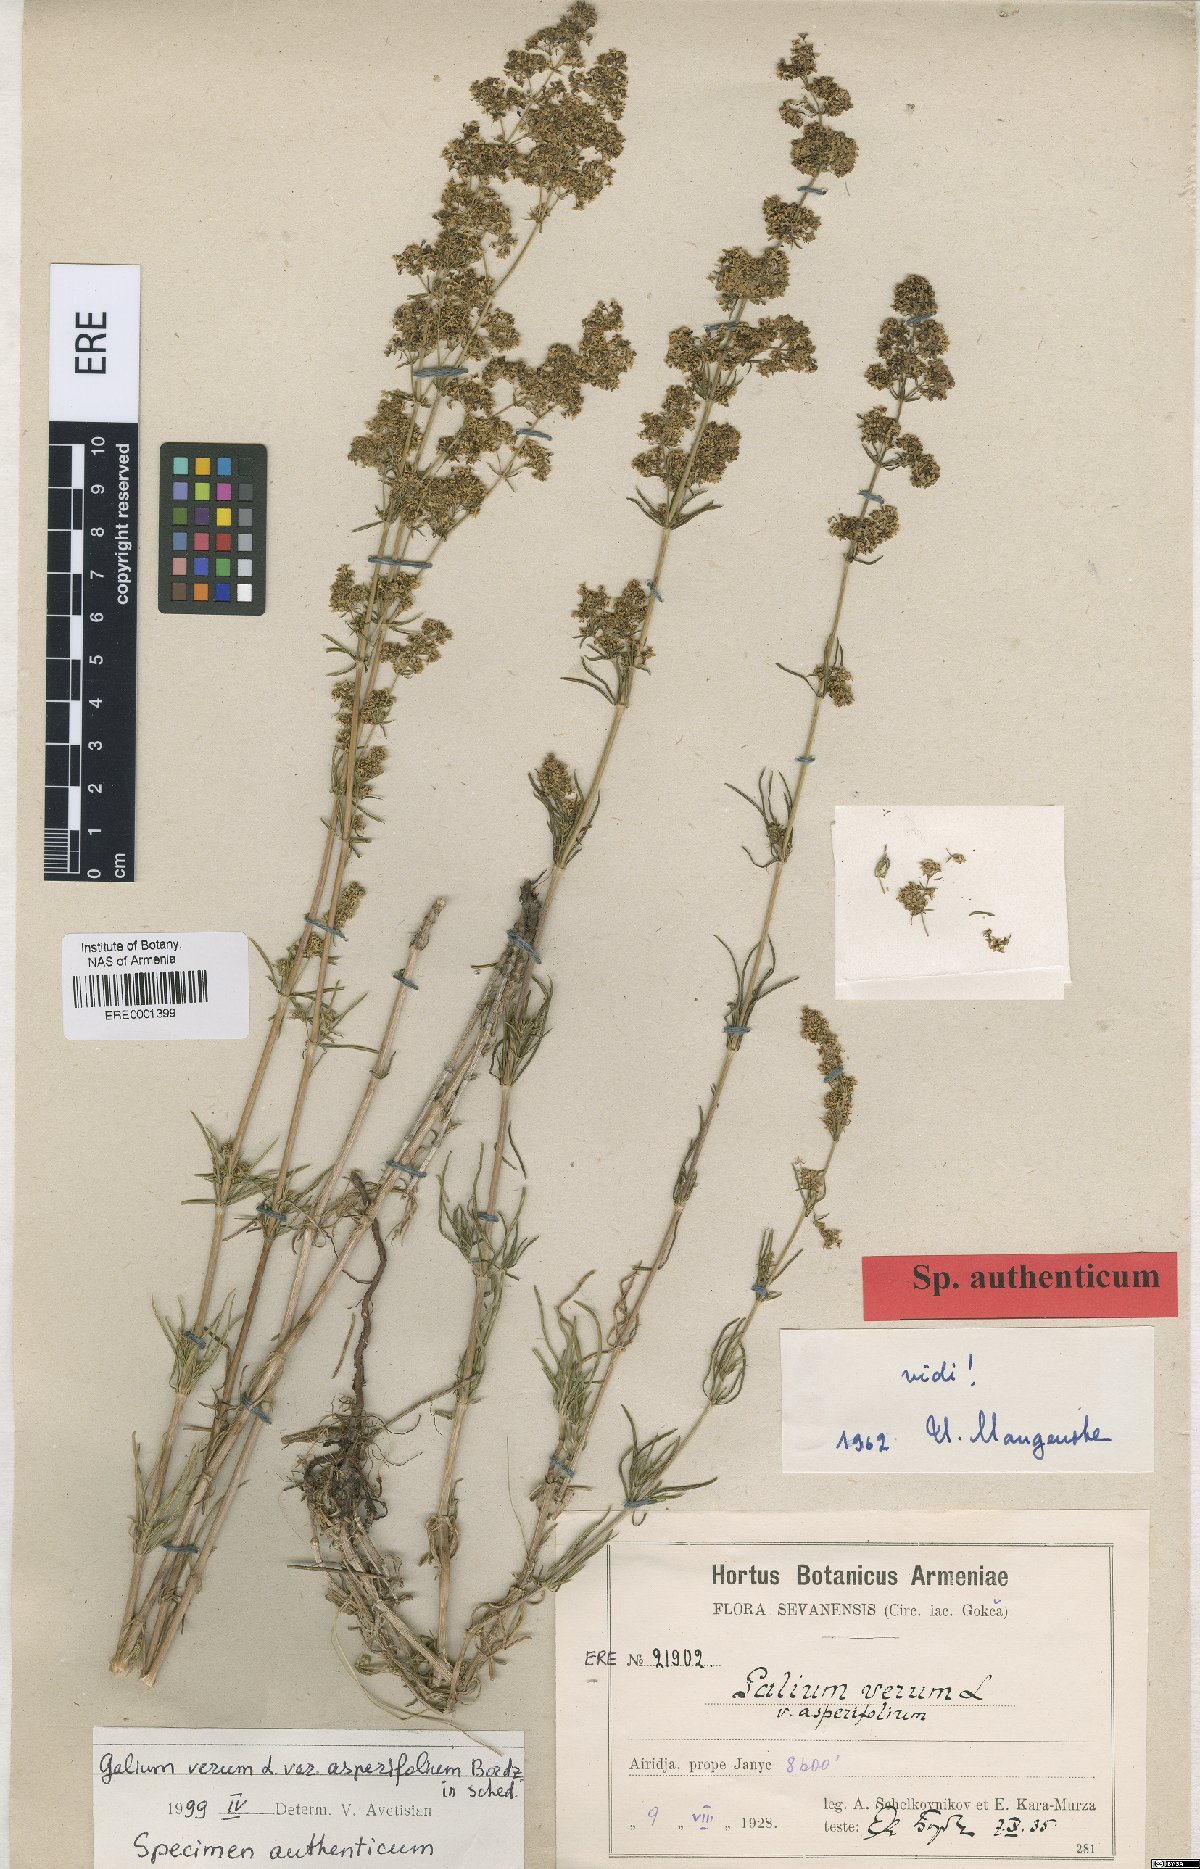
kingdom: Plantae
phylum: Tracheophyta
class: Magnoliopsida
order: Gentianales
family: Rubiaceae
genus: Galium
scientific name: Galium verum
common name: Lady's bedstraw
